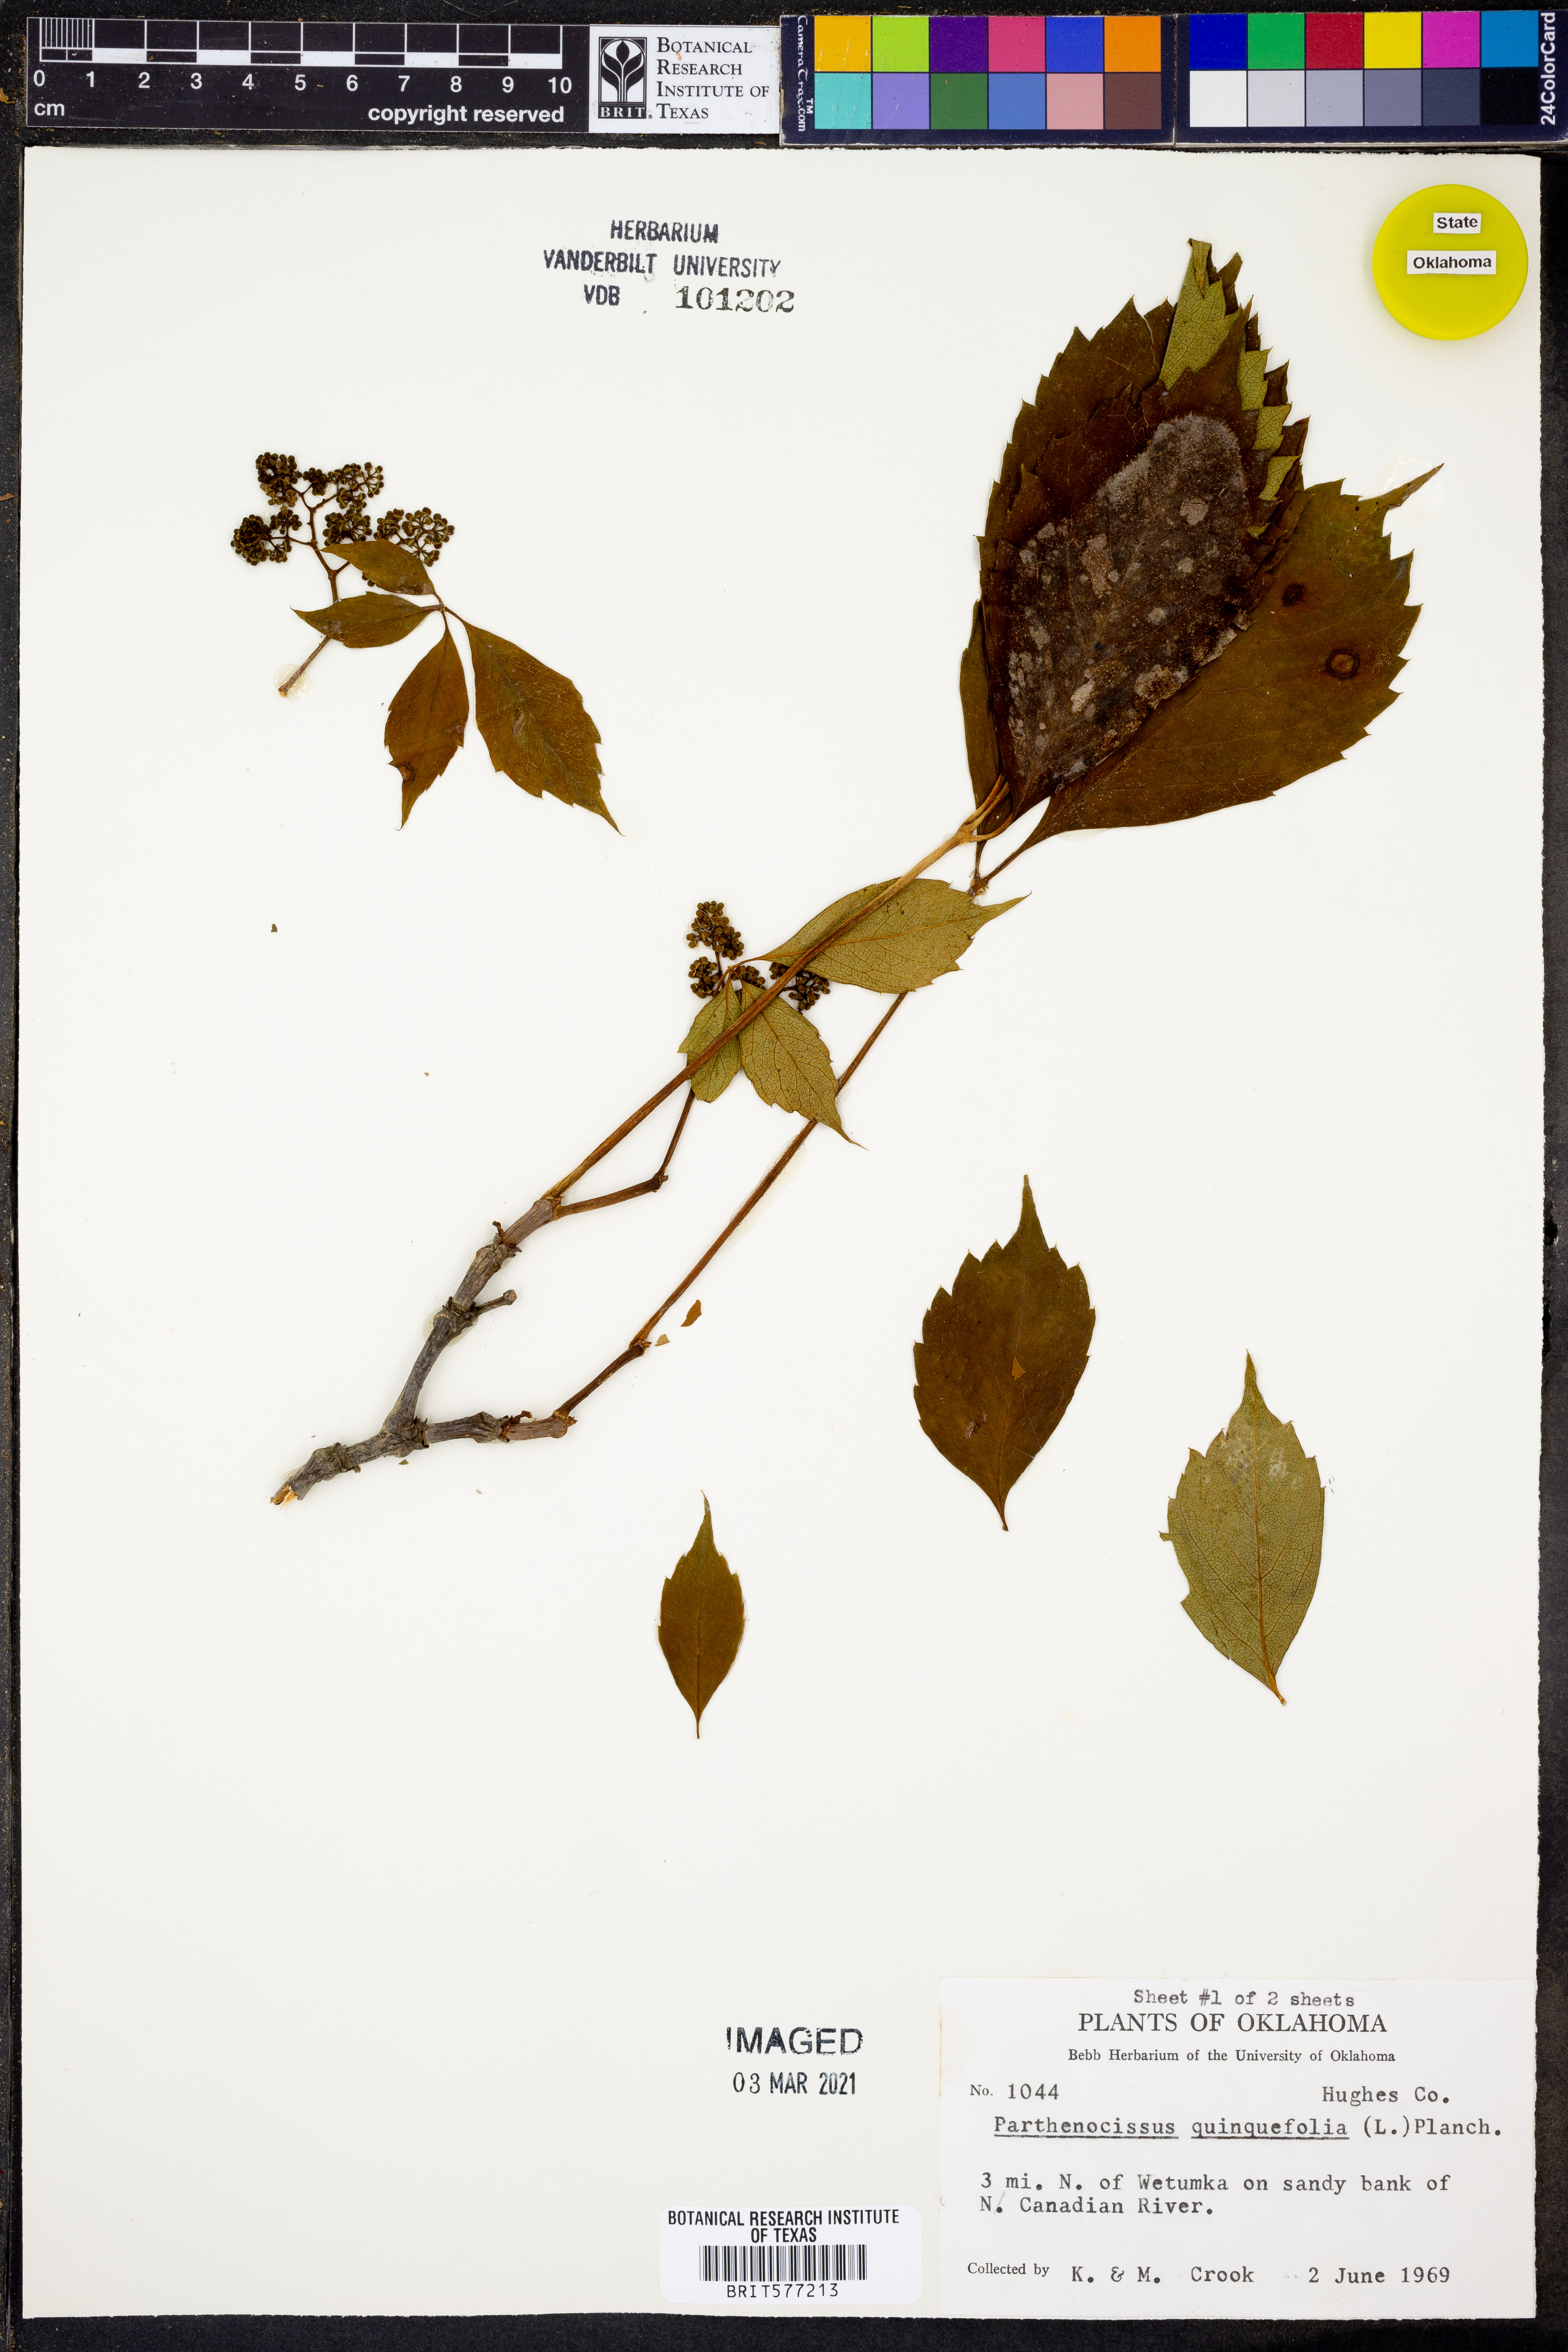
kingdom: Plantae
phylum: Tracheophyta
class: Magnoliopsida
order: Vitales
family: Vitaceae
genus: Parthenocissus
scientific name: Parthenocissus quinquefolia
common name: Virginia-creeper
